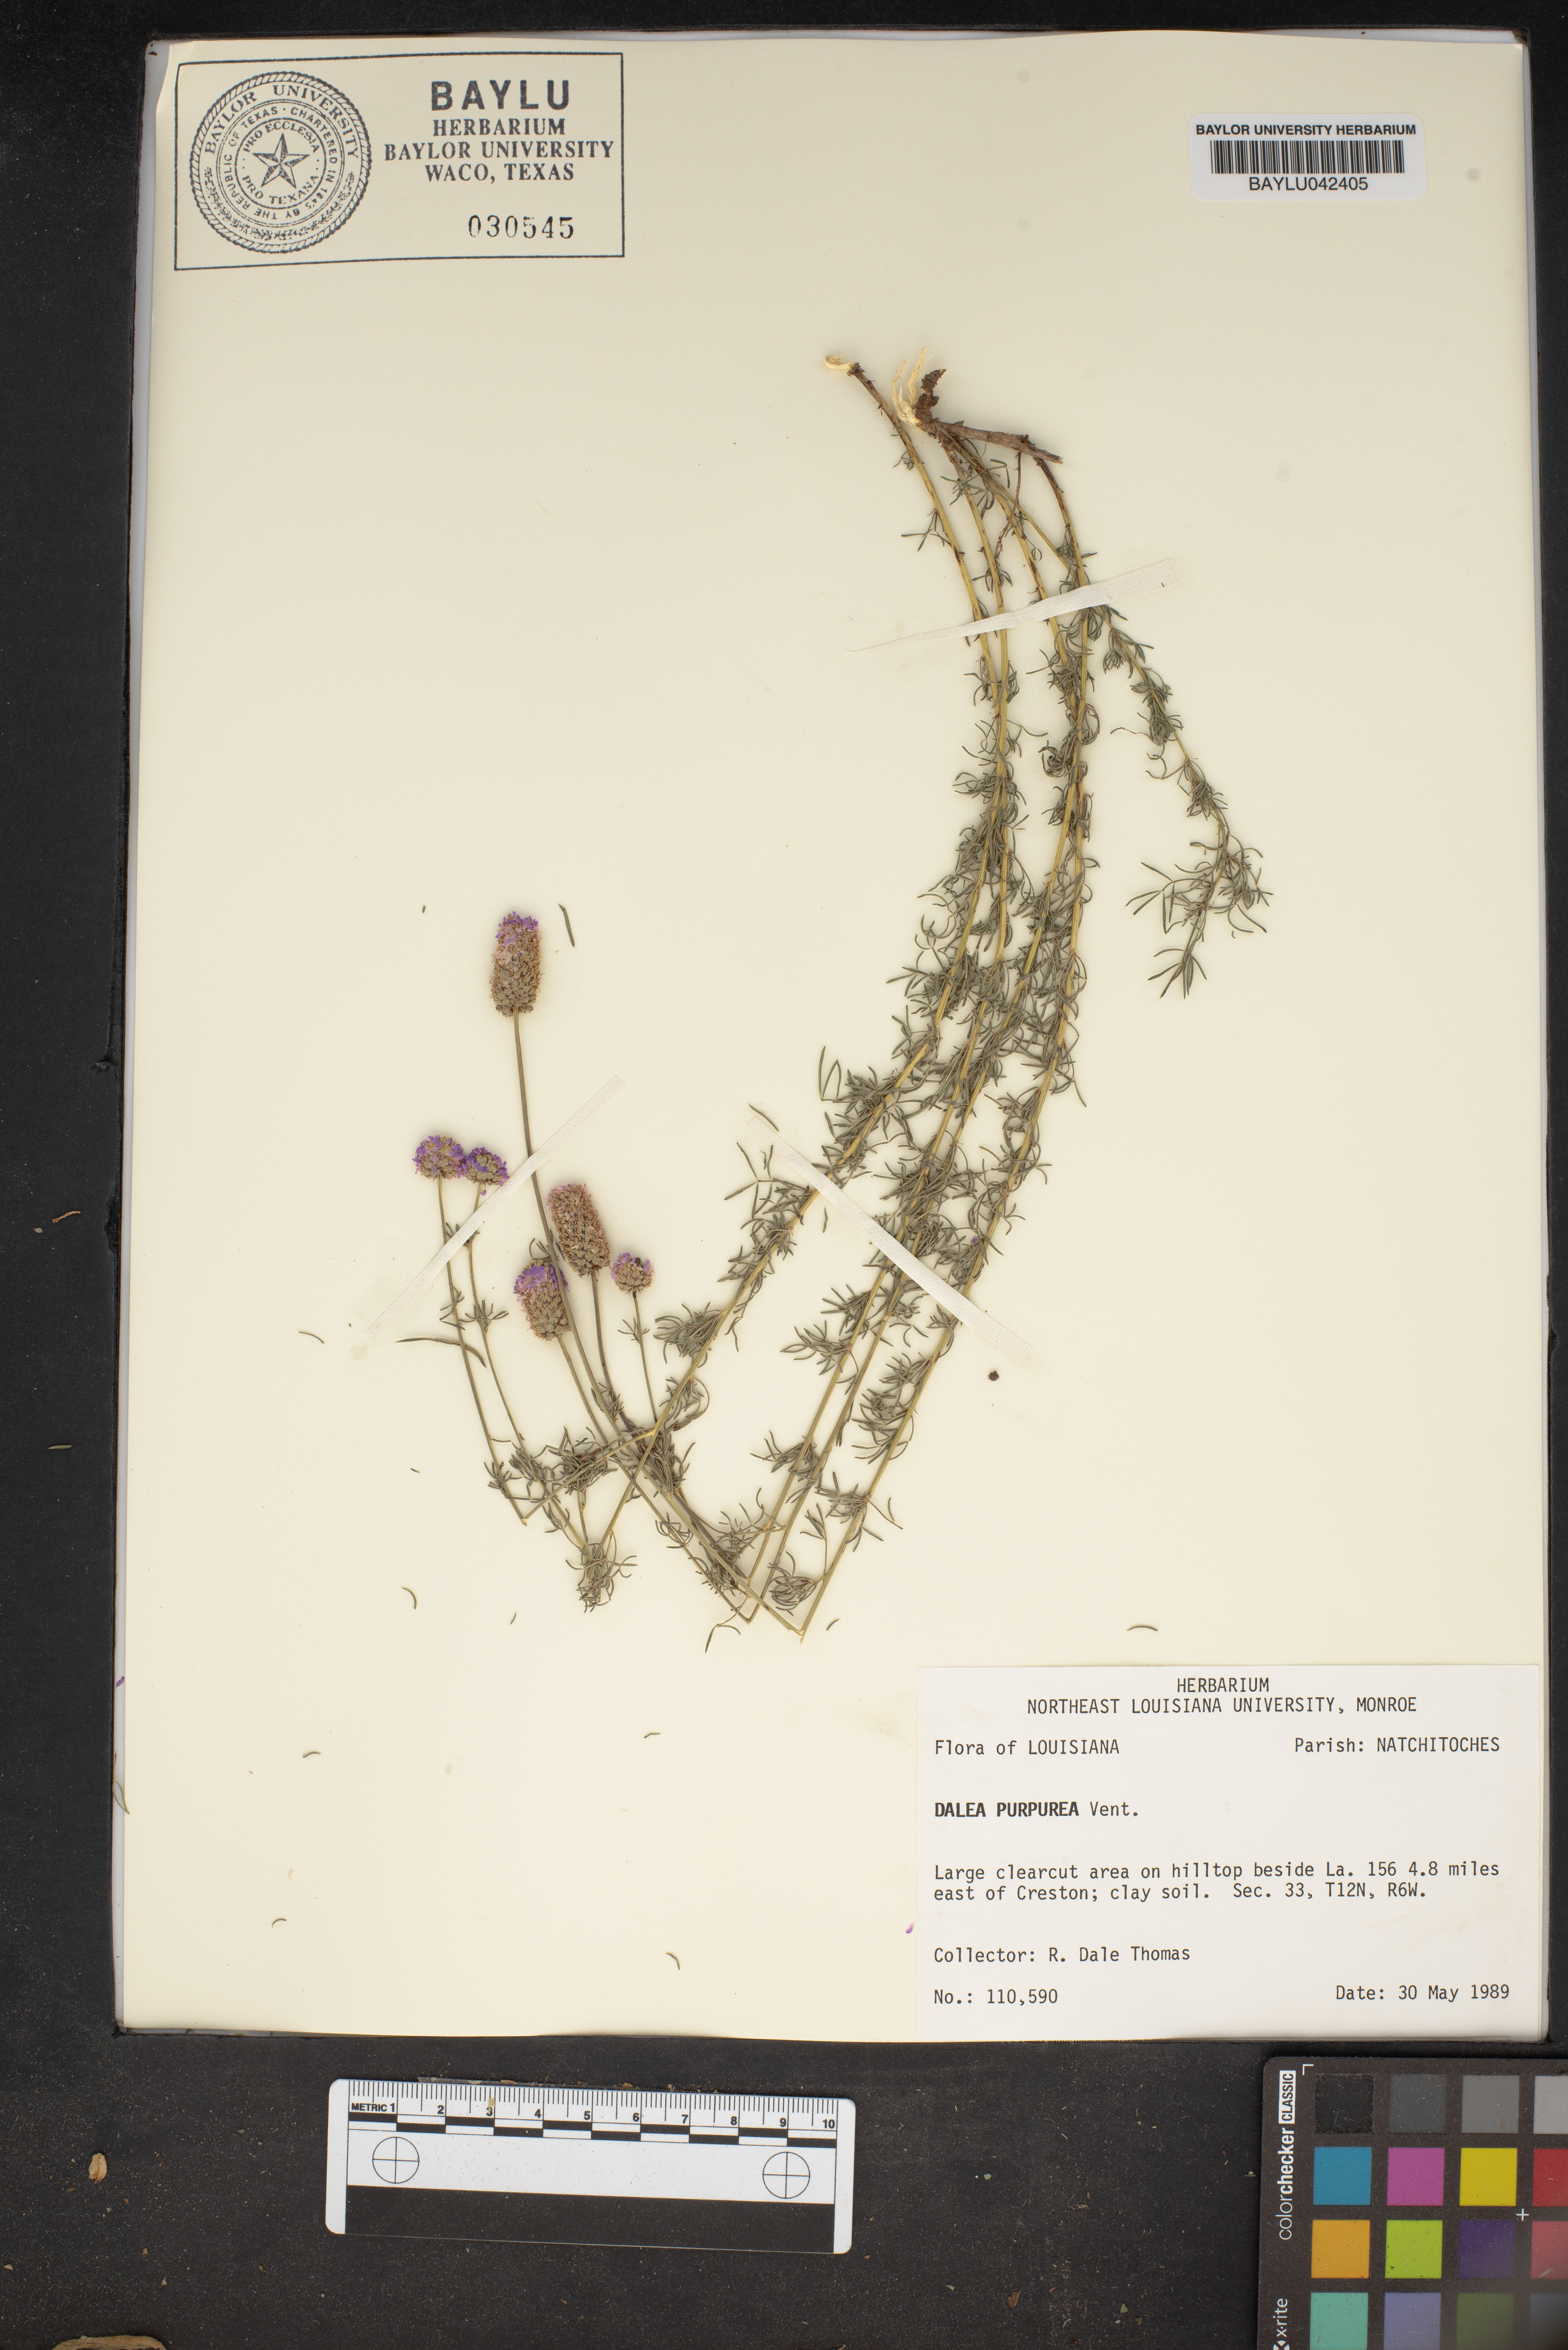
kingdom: Plantae
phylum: Tracheophyta
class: Magnoliopsida
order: Fabales
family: Fabaceae
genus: Dalea
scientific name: Dalea purpurea
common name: Purple prairie-clover
